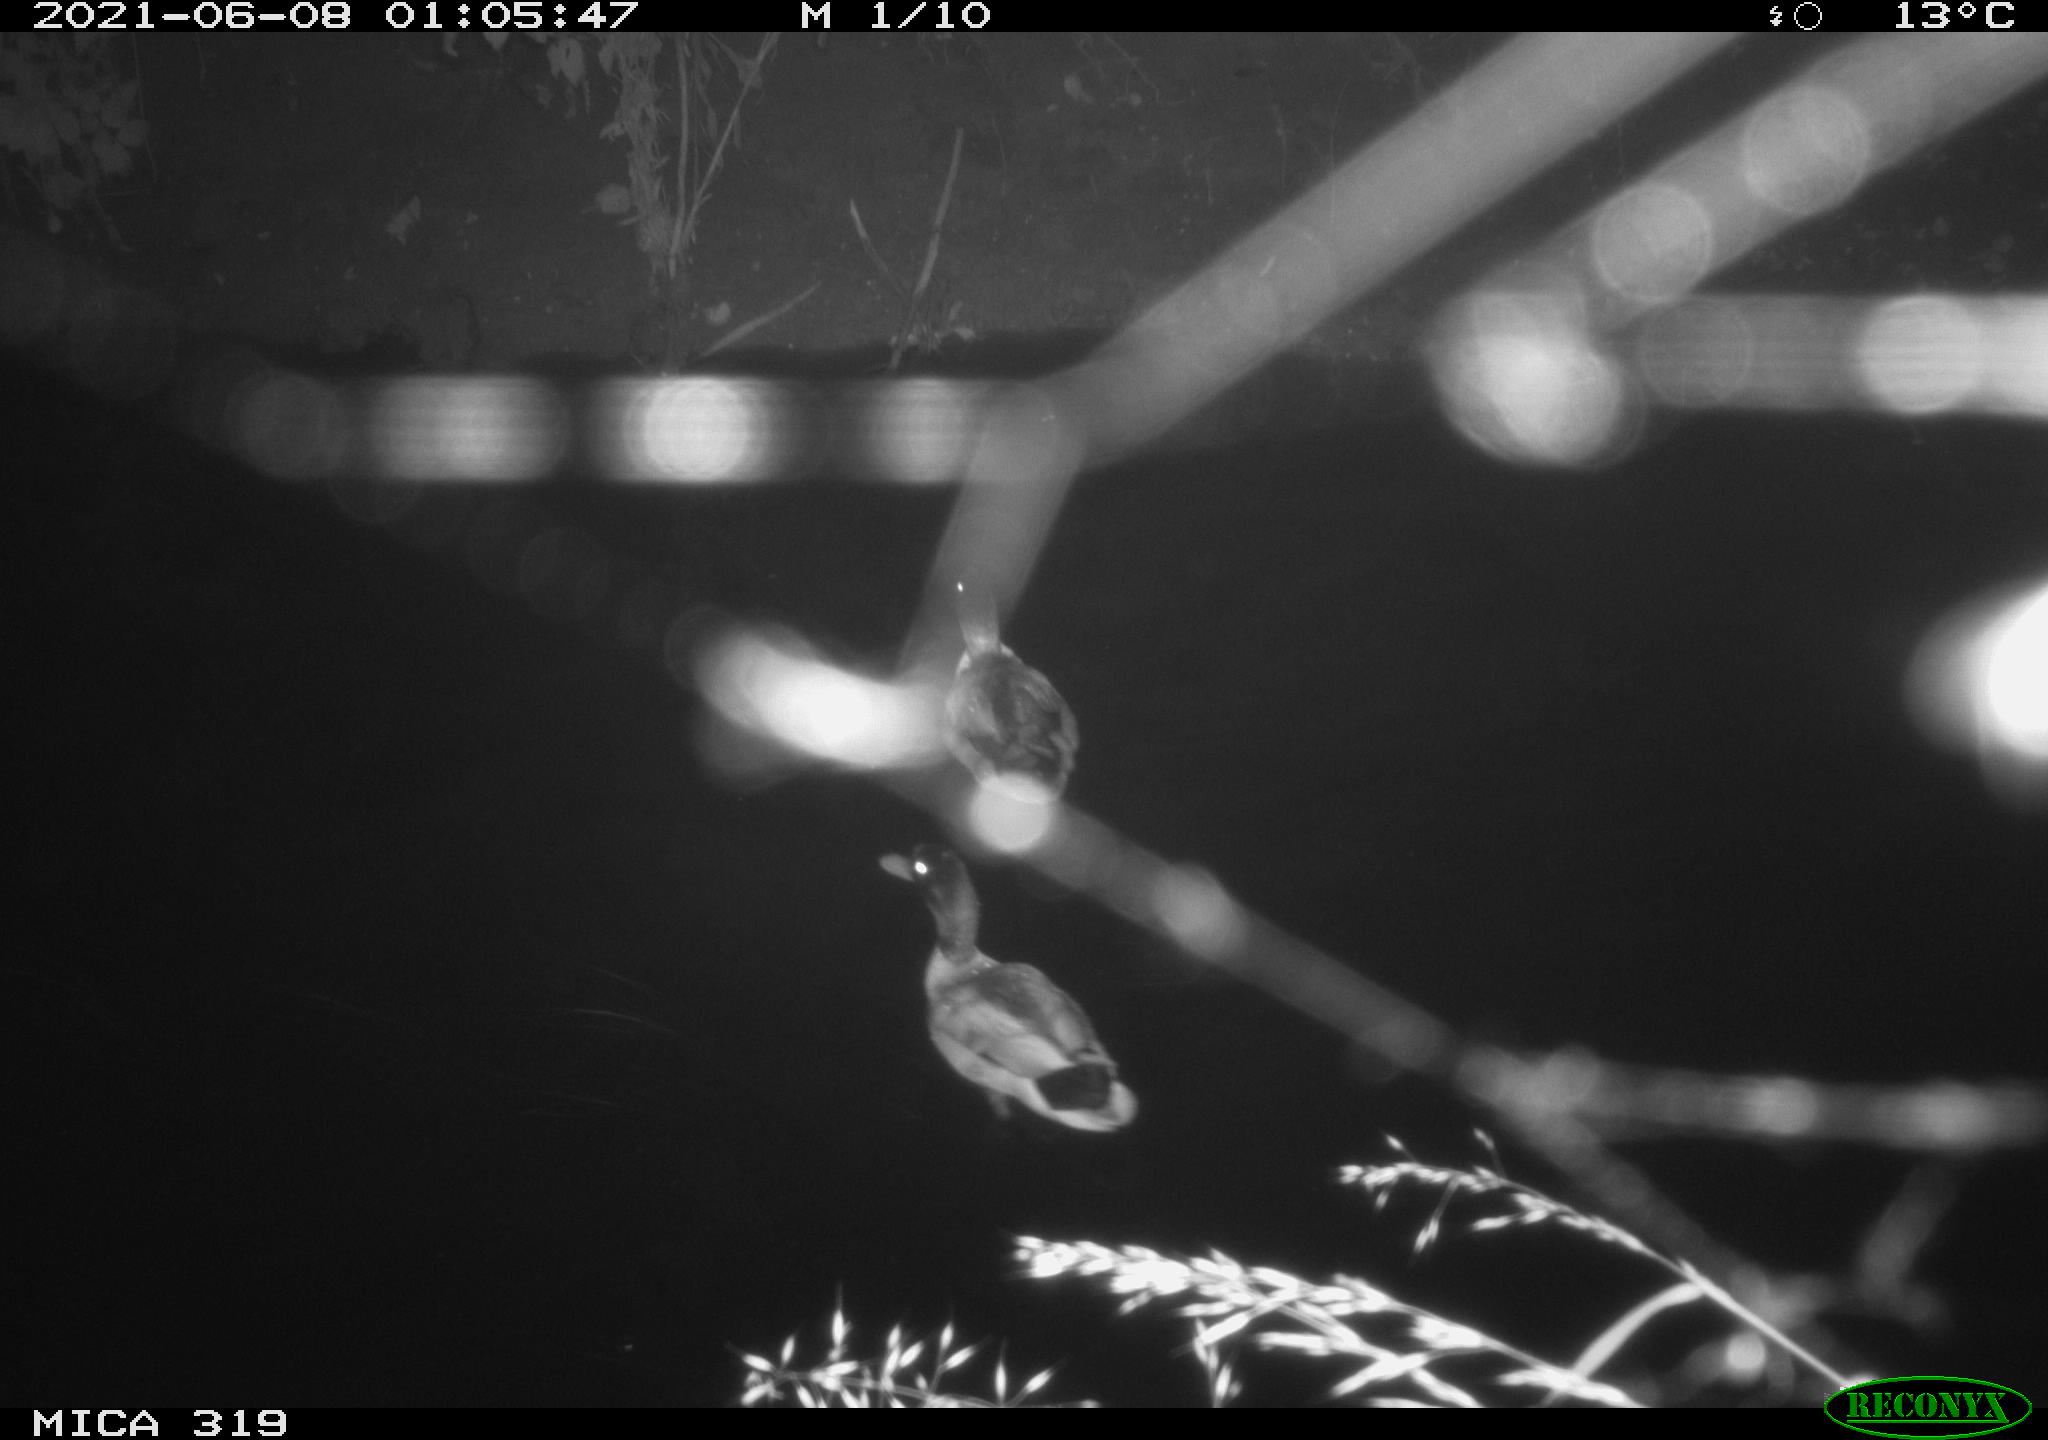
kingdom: Animalia
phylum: Chordata
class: Aves
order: Anseriformes
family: Anatidae
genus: Anas
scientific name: Anas platyrhynchos
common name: Mallard
